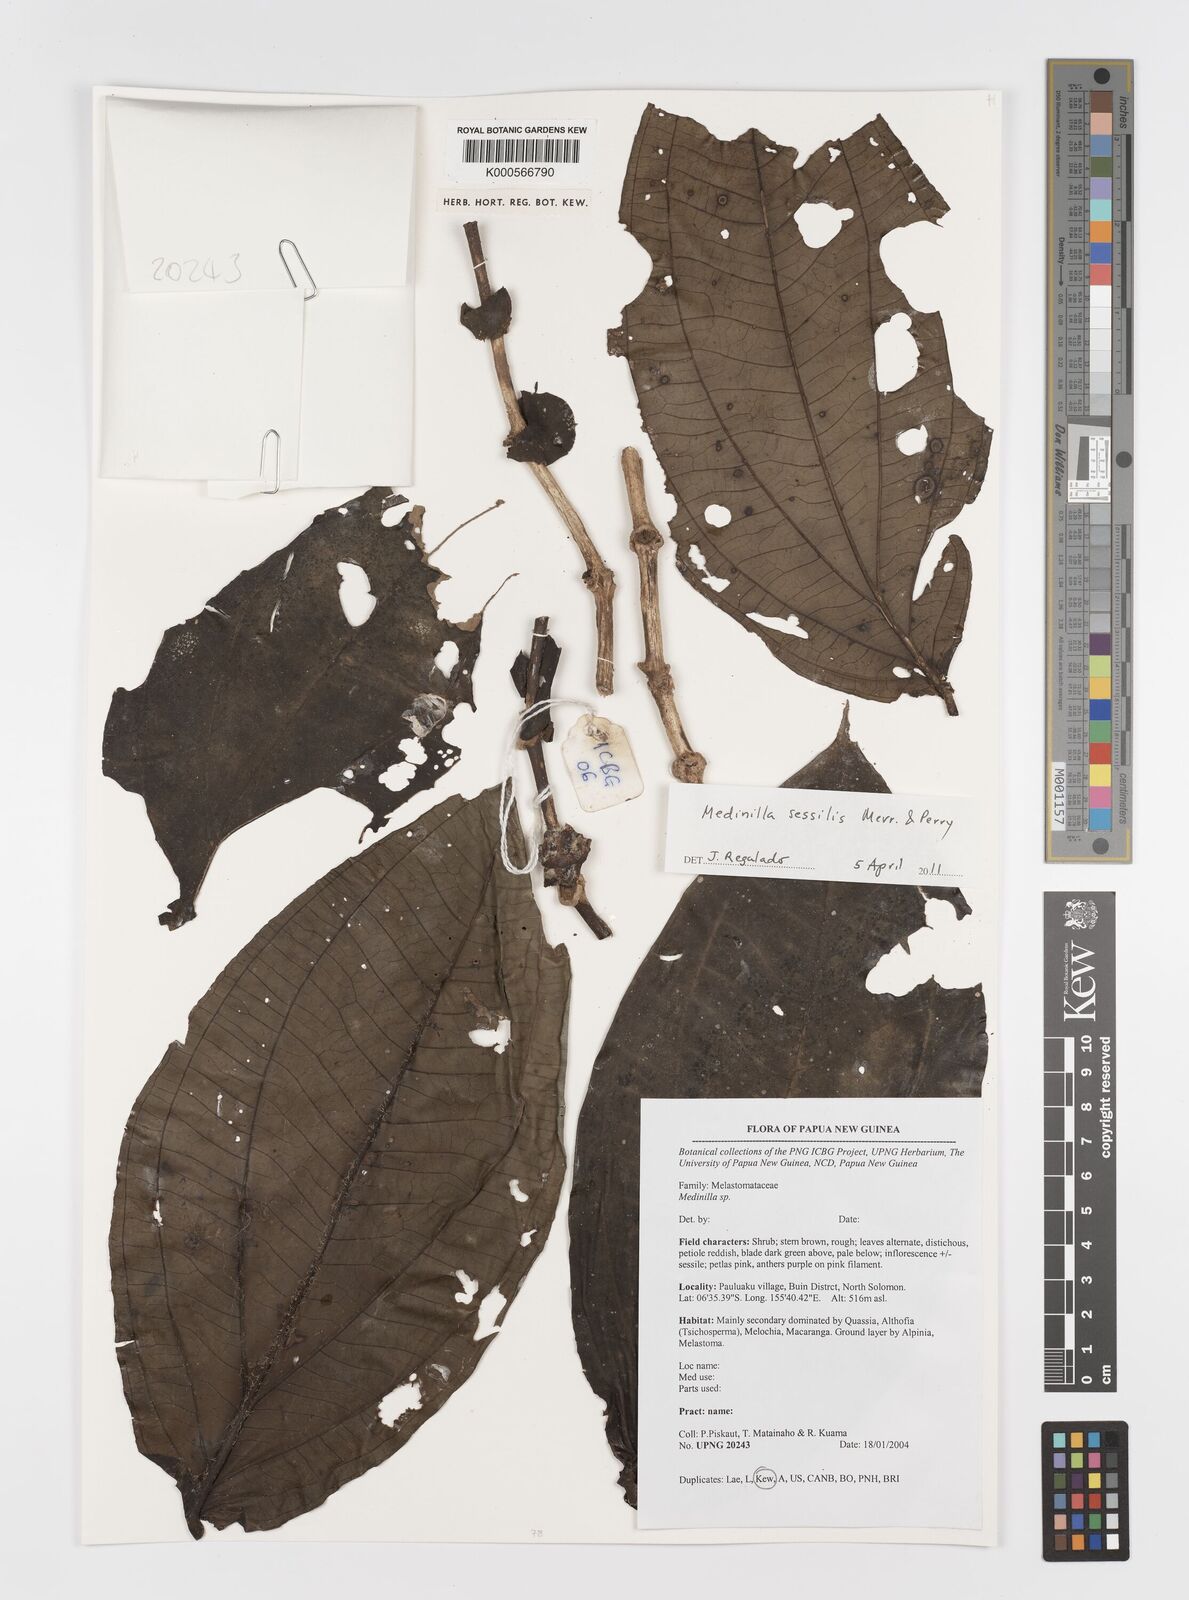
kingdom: Plantae
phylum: Tracheophyta
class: Magnoliopsida
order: Myrtales
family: Melastomataceae
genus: Medinilla
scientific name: Medinilla sessilis
